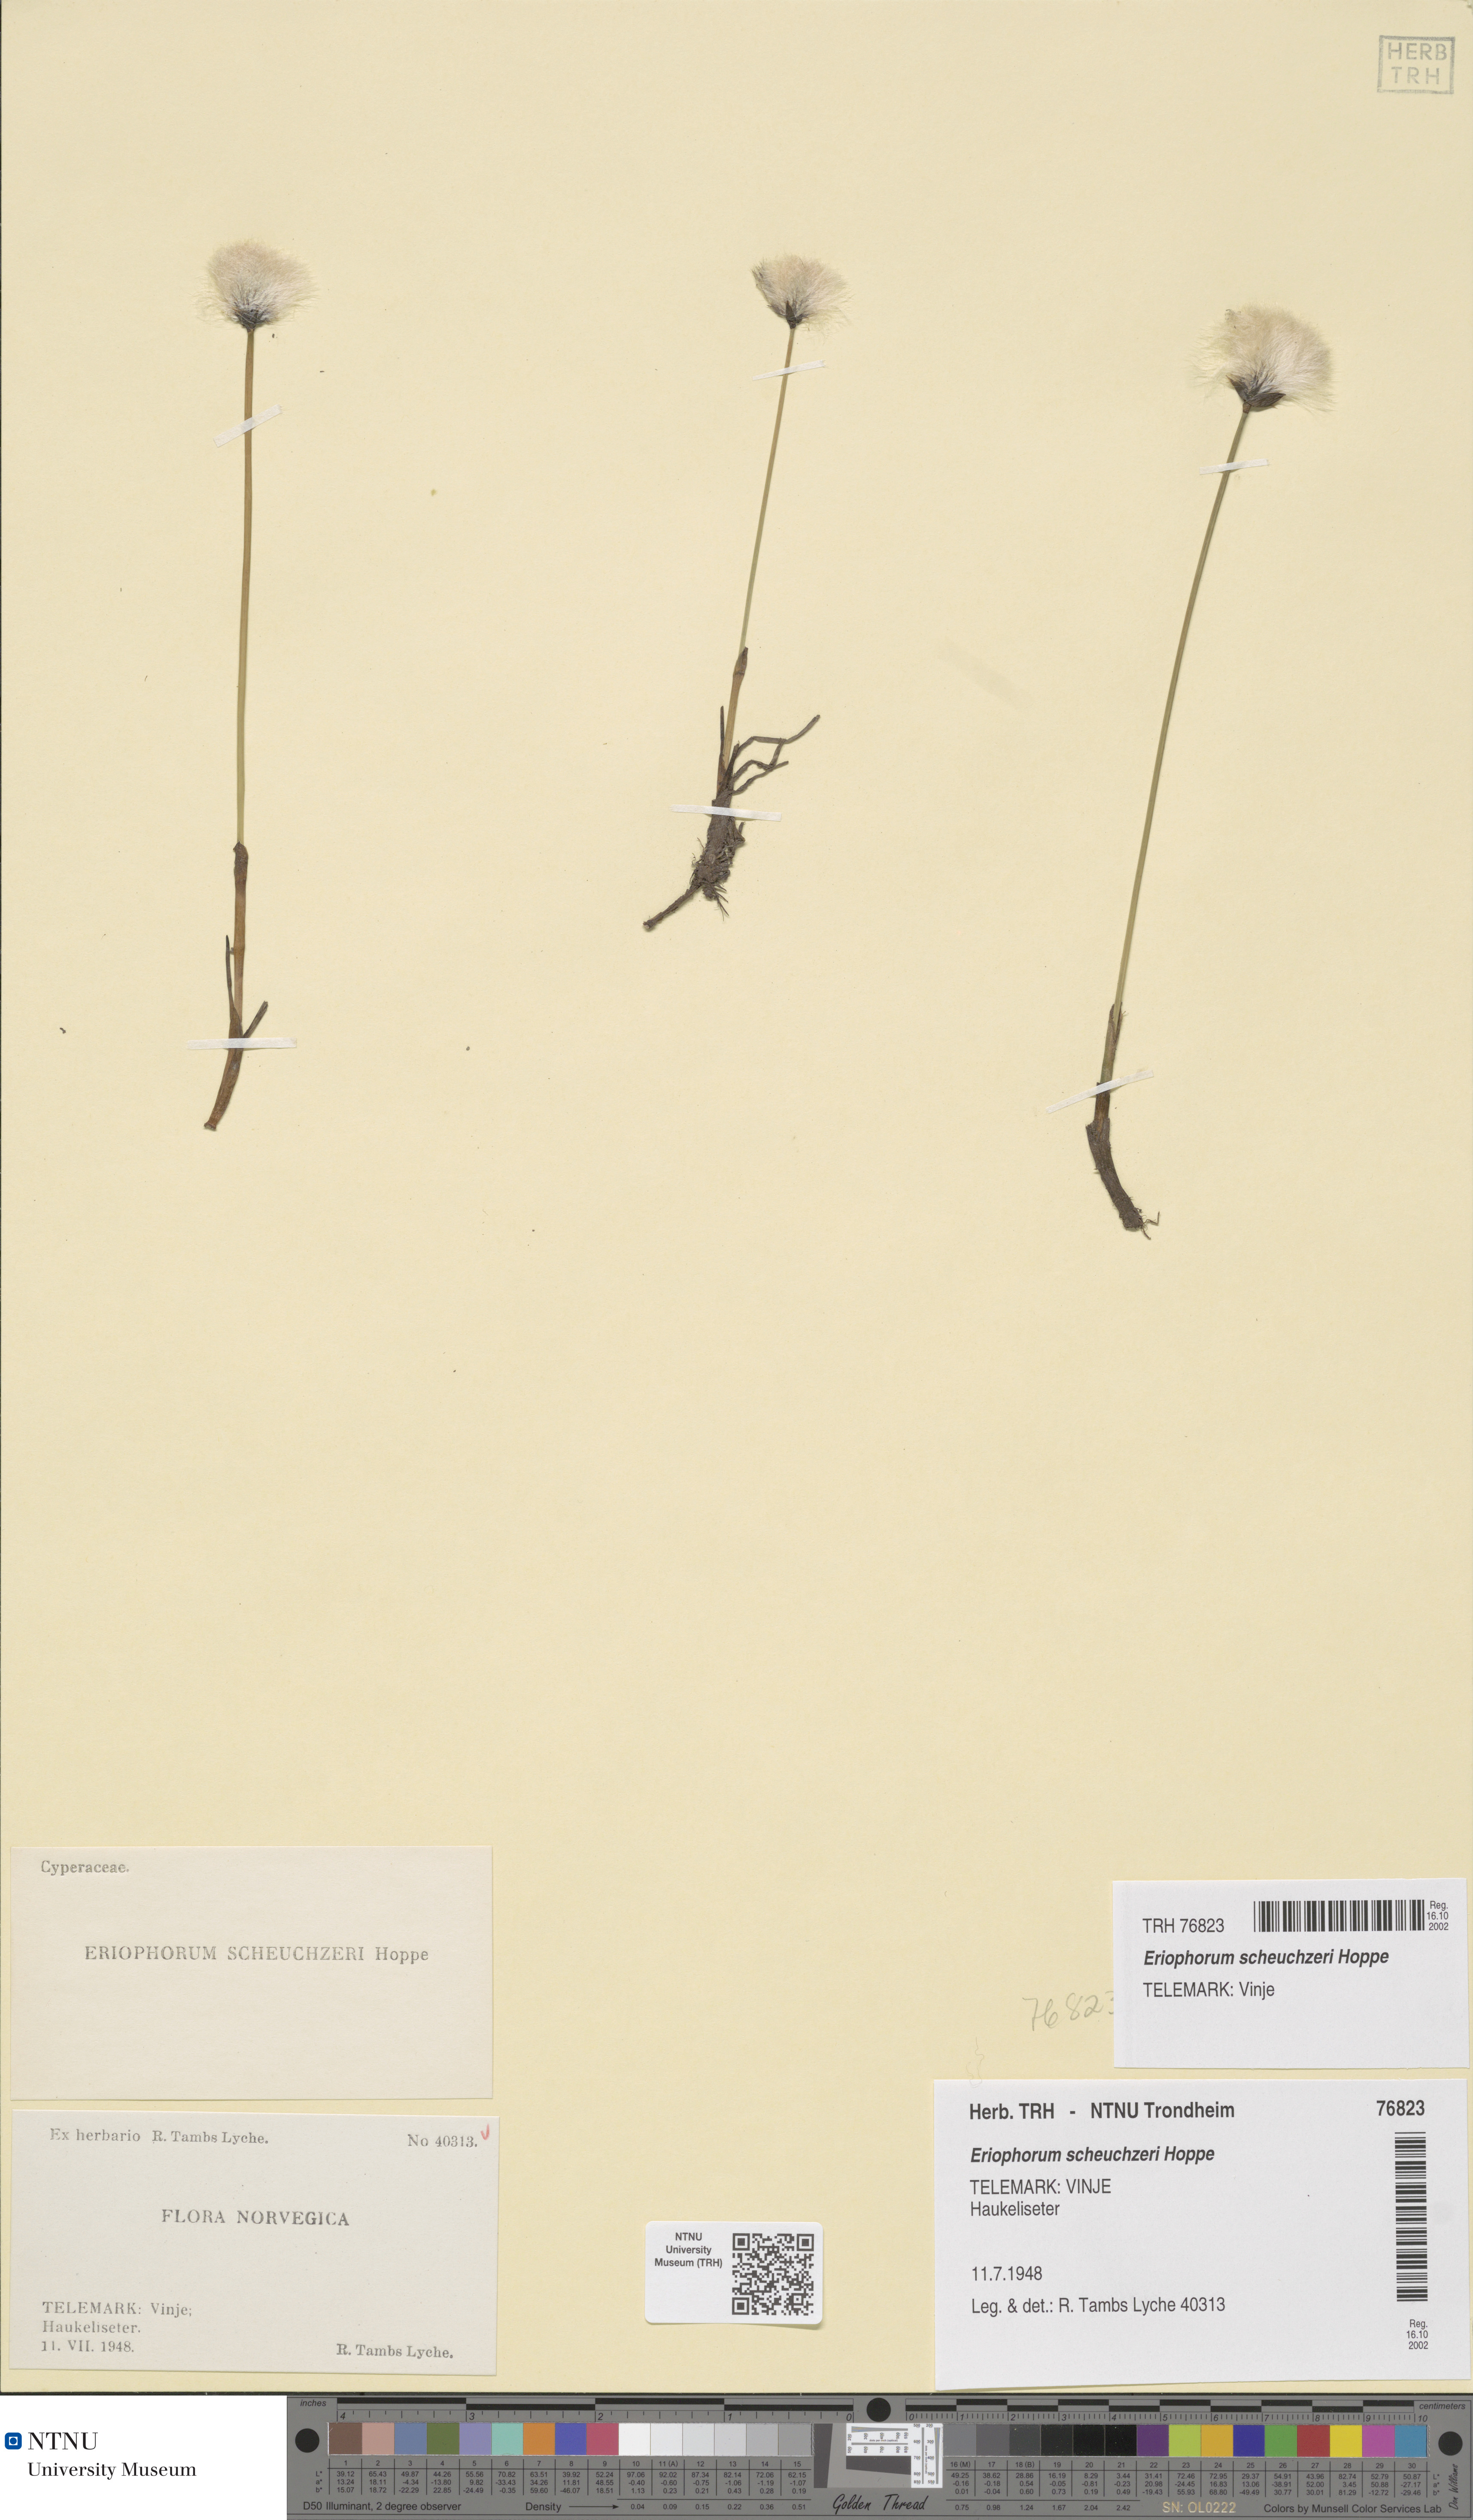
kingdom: Plantae
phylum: Tracheophyta
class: Liliopsida
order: Poales
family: Cyperaceae
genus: Eriophorum
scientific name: Eriophorum scheuchzeri
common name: Scheuchzer's cottongrass
